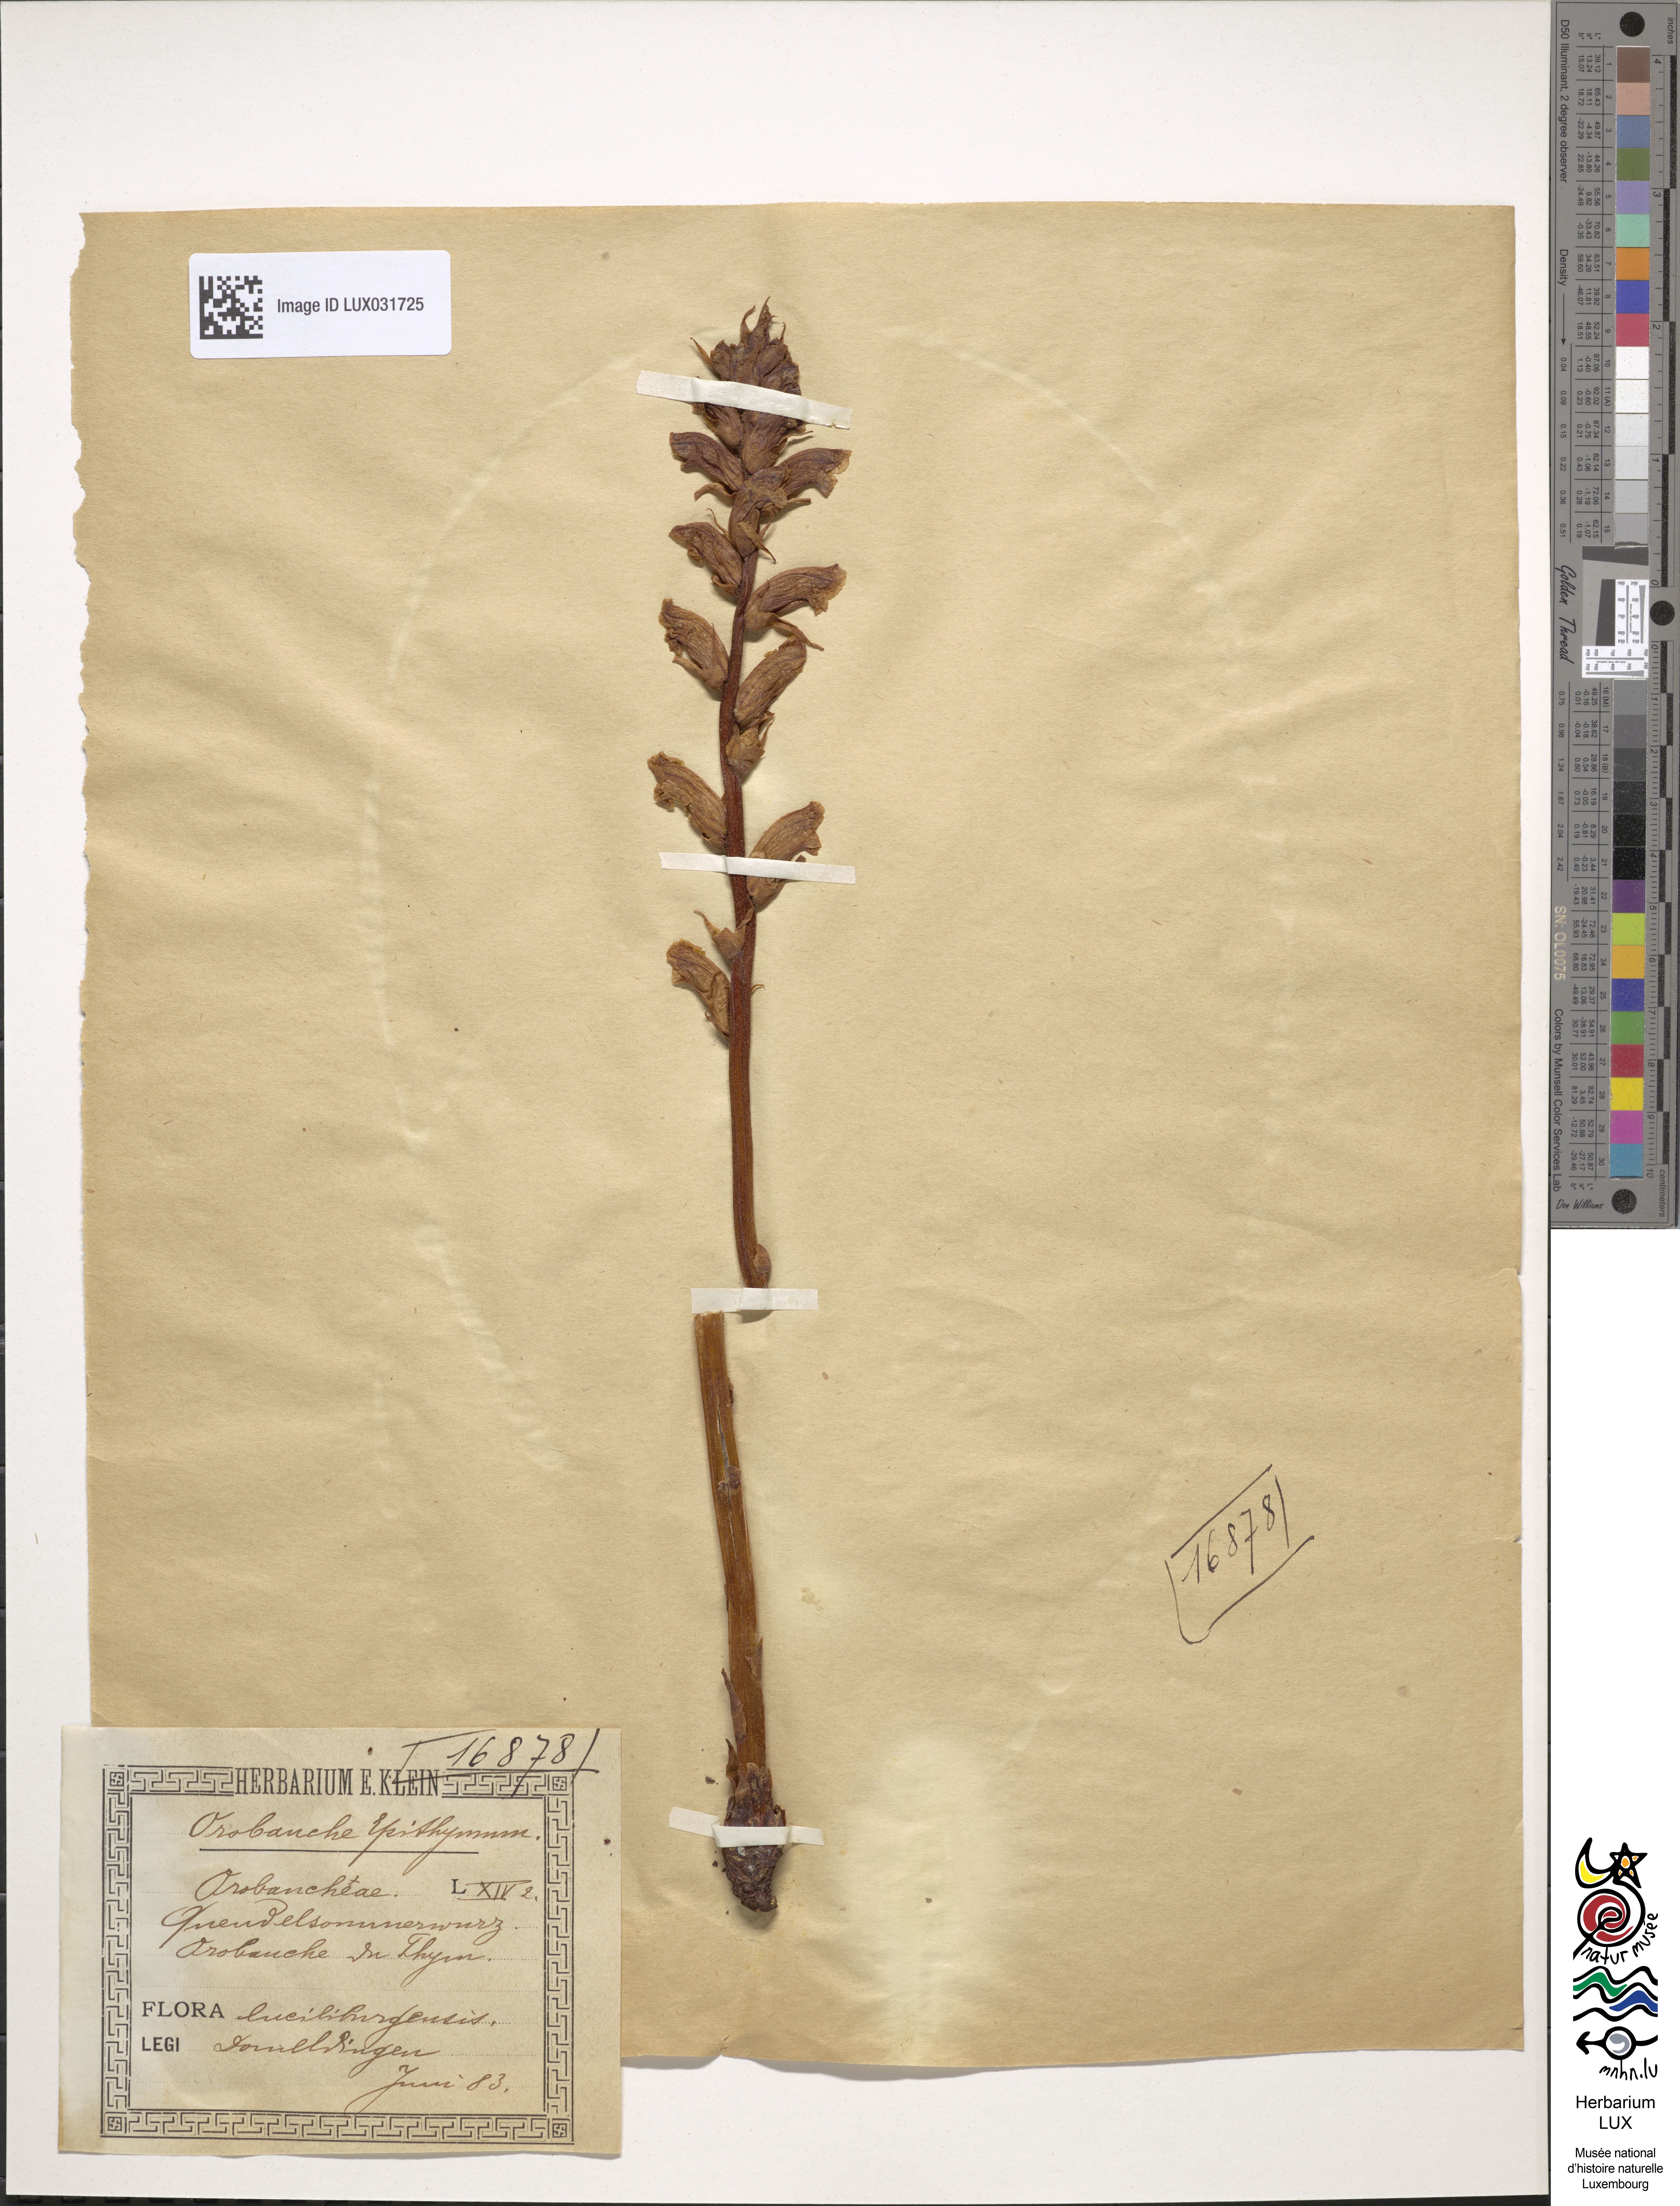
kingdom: Plantae
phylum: Tracheophyta
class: Magnoliopsida
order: Lamiales
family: Orobanchaceae
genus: Orobanche
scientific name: Orobanche alba
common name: Thyme broomrape
